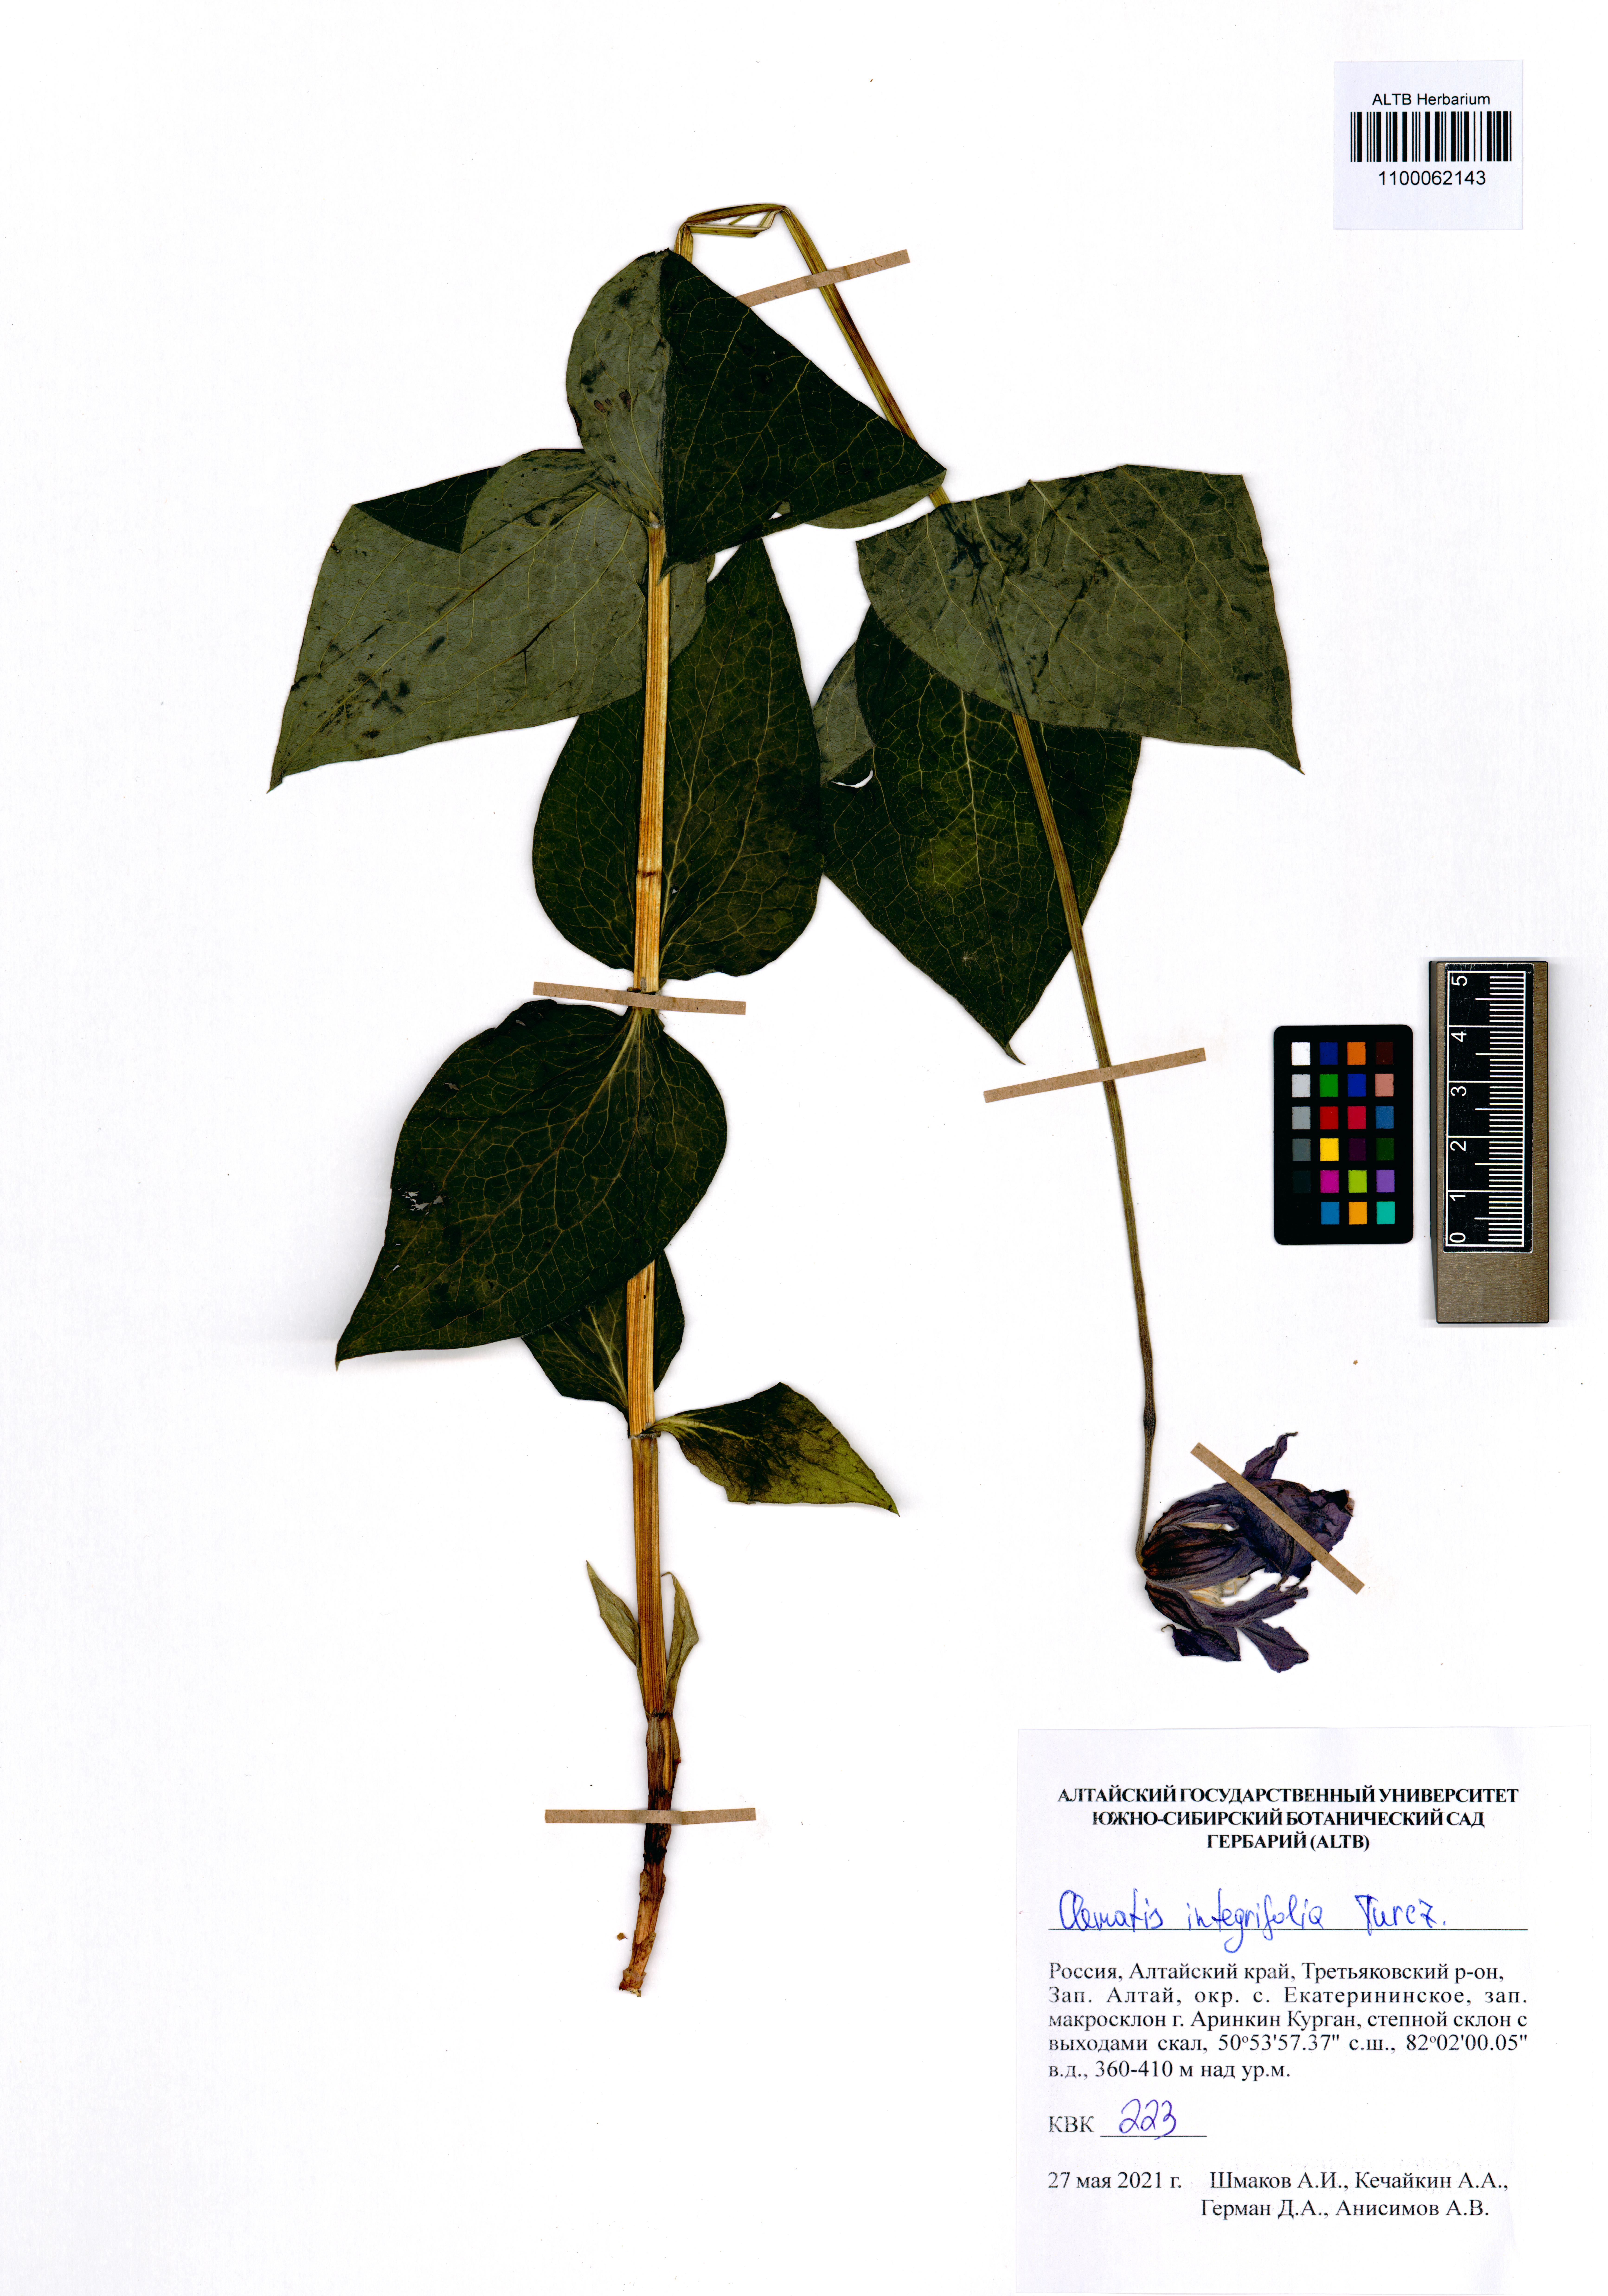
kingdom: Plantae
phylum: Tracheophyta
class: Magnoliopsida
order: Ranunculales
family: Ranunculaceae
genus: Clematis
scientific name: Clematis integrifolia
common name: Solitary clematis
